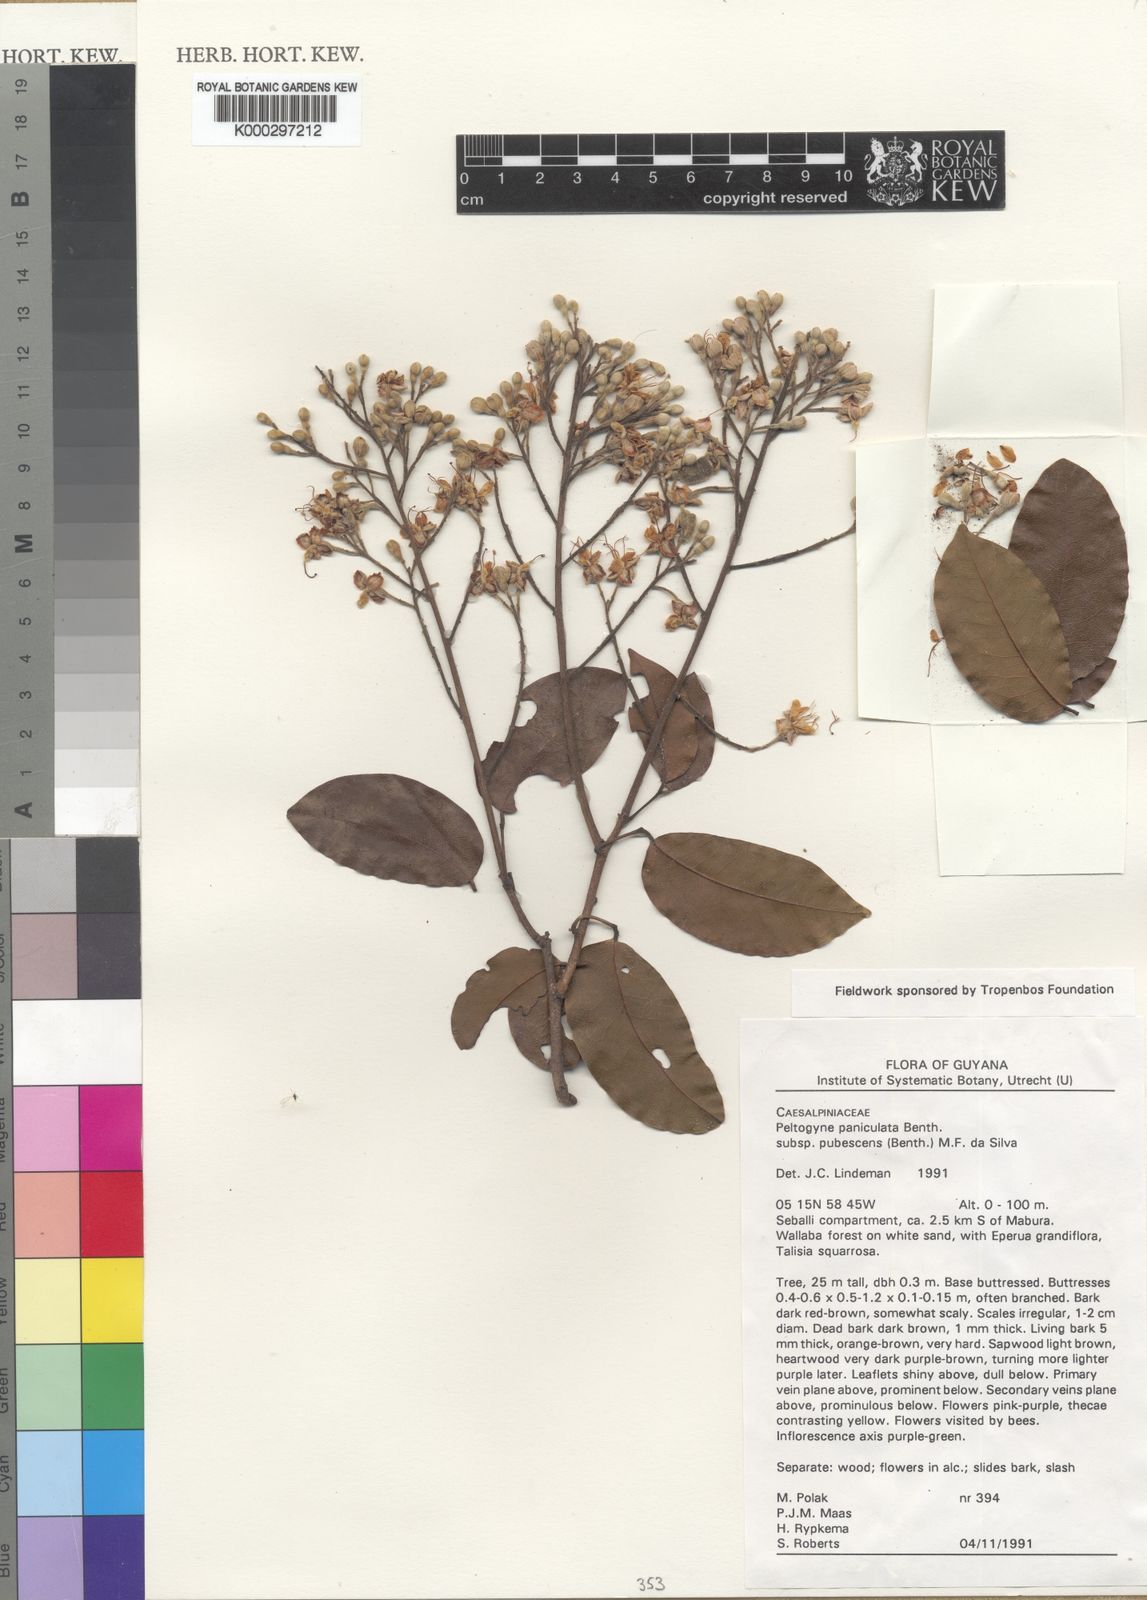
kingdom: Plantae
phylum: Tracheophyta
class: Magnoliopsida
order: Fabales
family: Fabaceae
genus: Peltogyne
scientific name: Peltogyne paniculata
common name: Purpleheart
